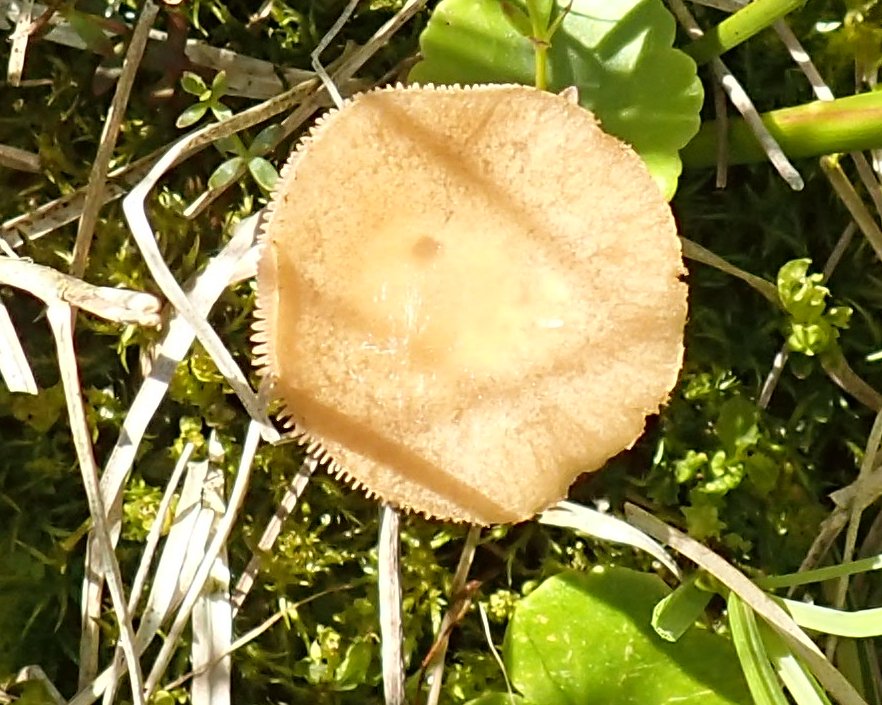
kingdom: Fungi
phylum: Basidiomycota
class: Agaricomycetes
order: Agaricales
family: Strophariaceae
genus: Agrocybe
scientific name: Agrocybe elatella
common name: mose-agerhat
